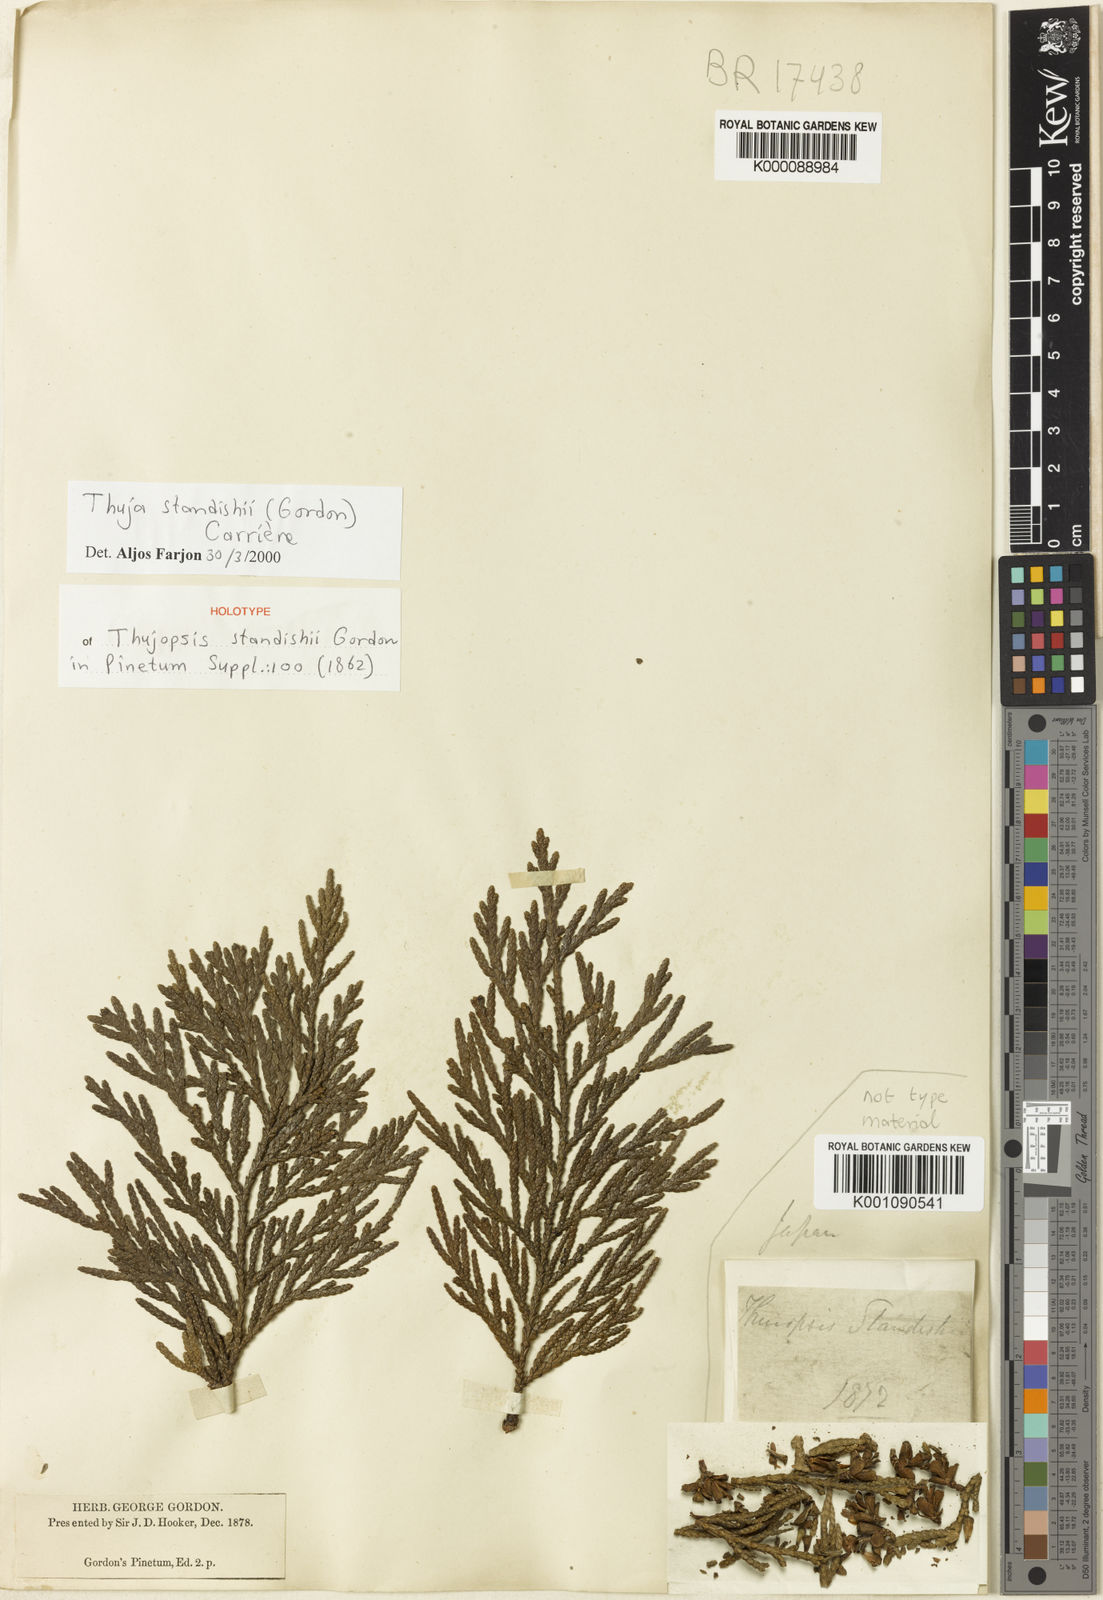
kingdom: Plantae
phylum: Tracheophyta
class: Pinopsida
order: Pinales
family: Cupressaceae
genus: Thuja
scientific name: Thuja
